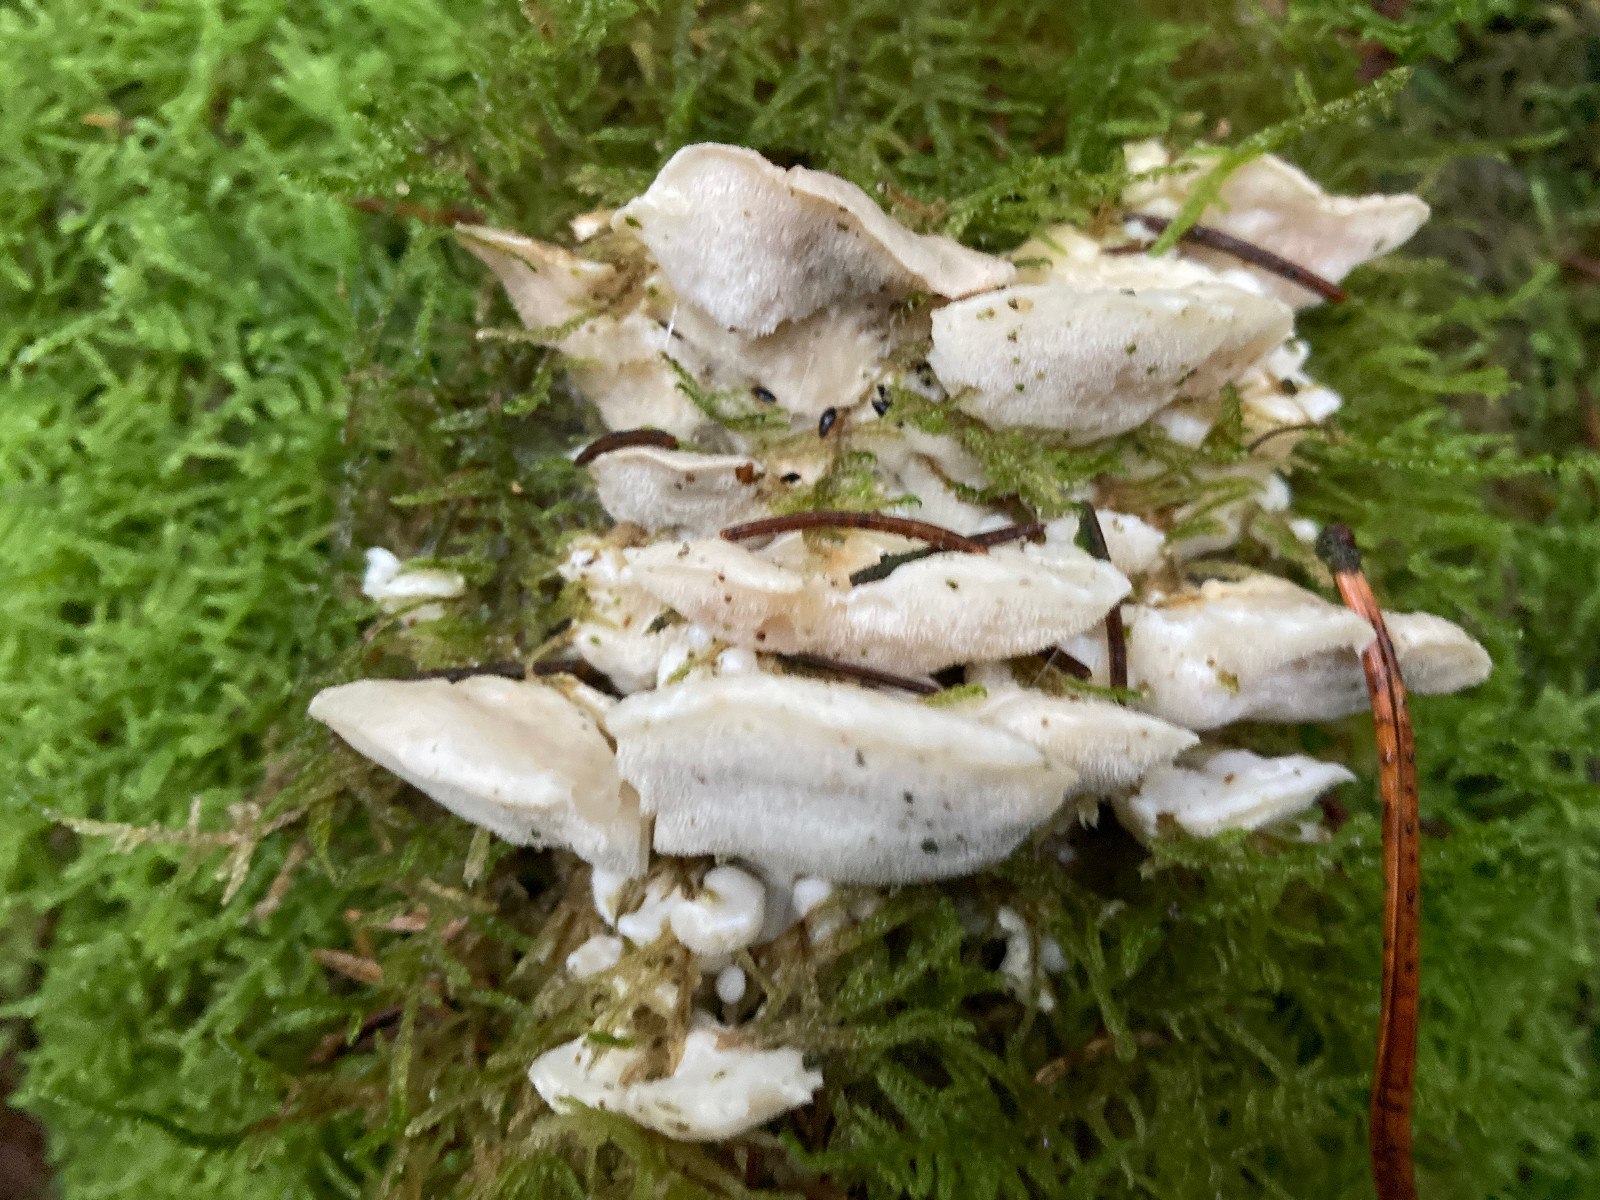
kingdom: Fungi
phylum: Basidiomycota
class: Agaricomycetes
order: Polyporales
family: Incrustoporiaceae
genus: Tyromyces
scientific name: Tyromyces lacteus
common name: mælkehvid kødporesvamp
